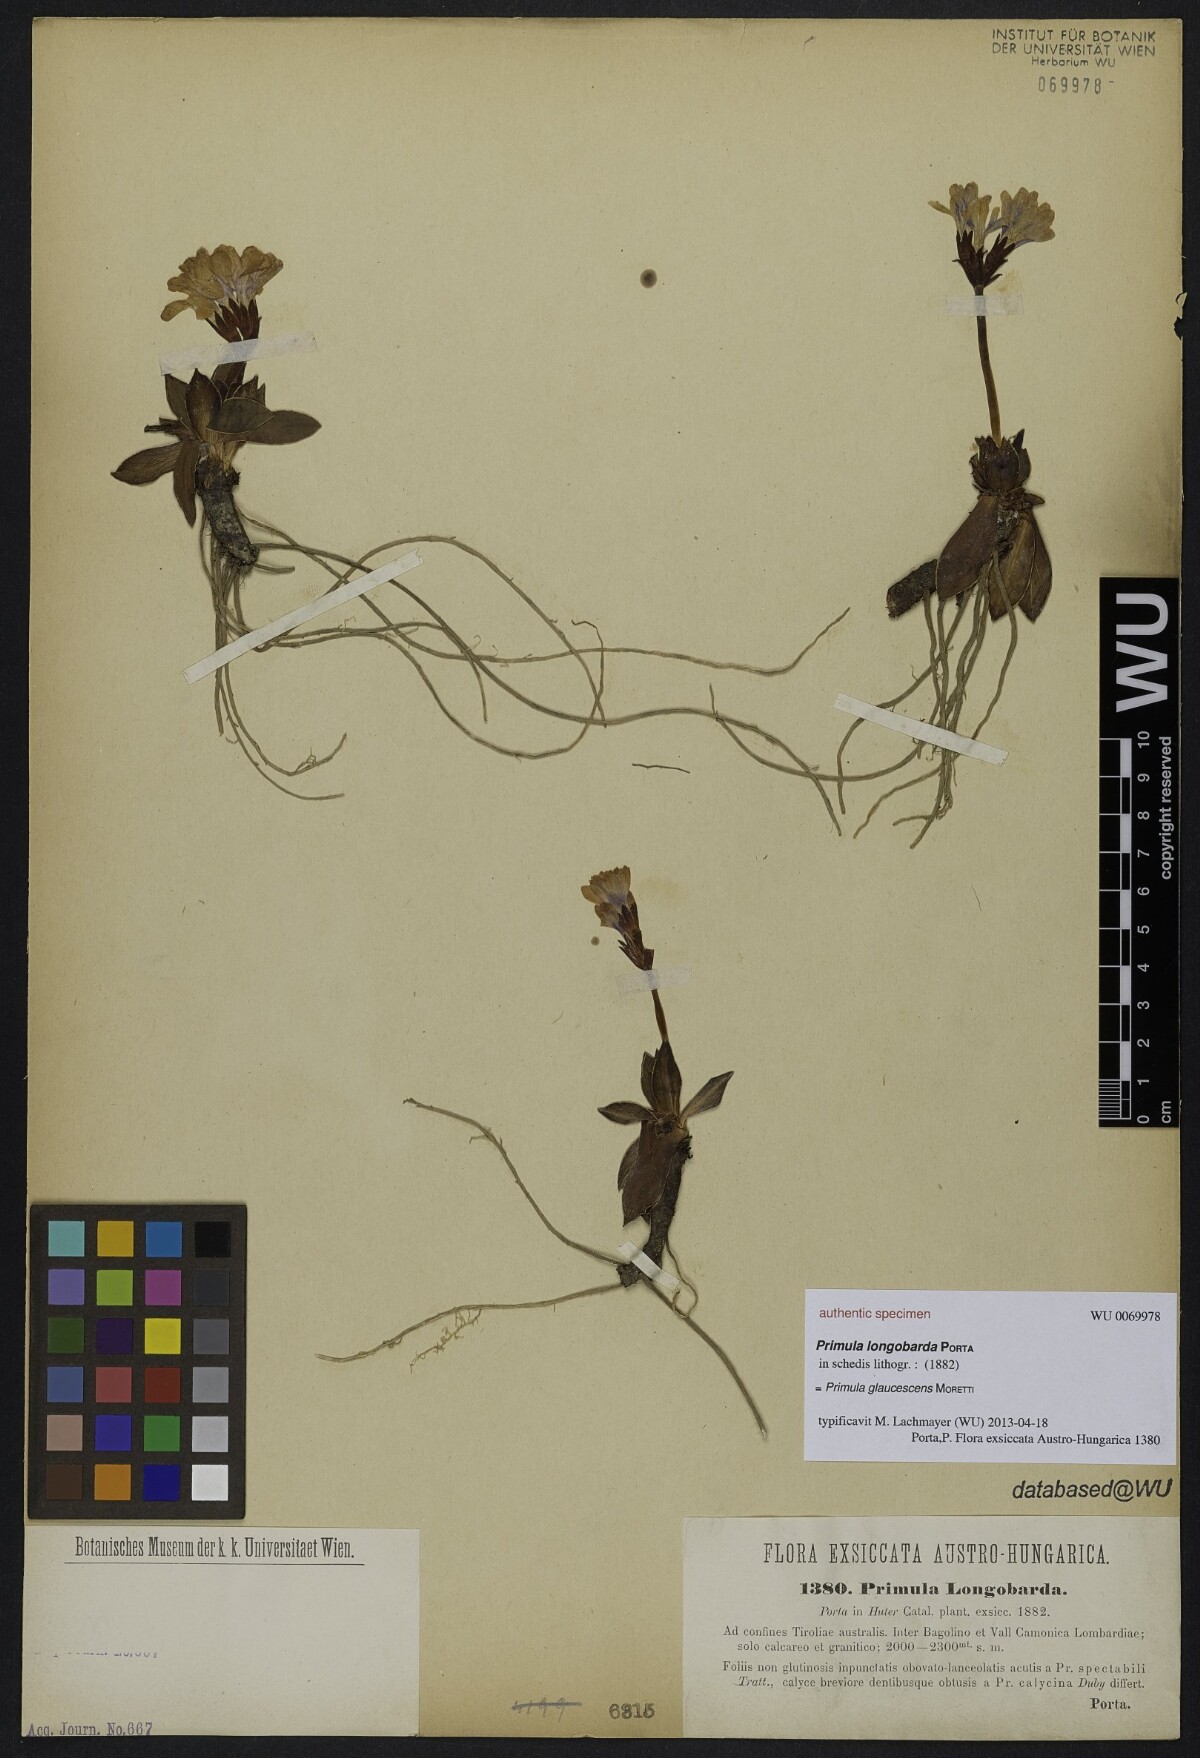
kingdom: Plantae
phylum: Tracheophyta
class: Magnoliopsida
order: Ericales
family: Primulaceae
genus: Primula
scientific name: Primula glaucescens
